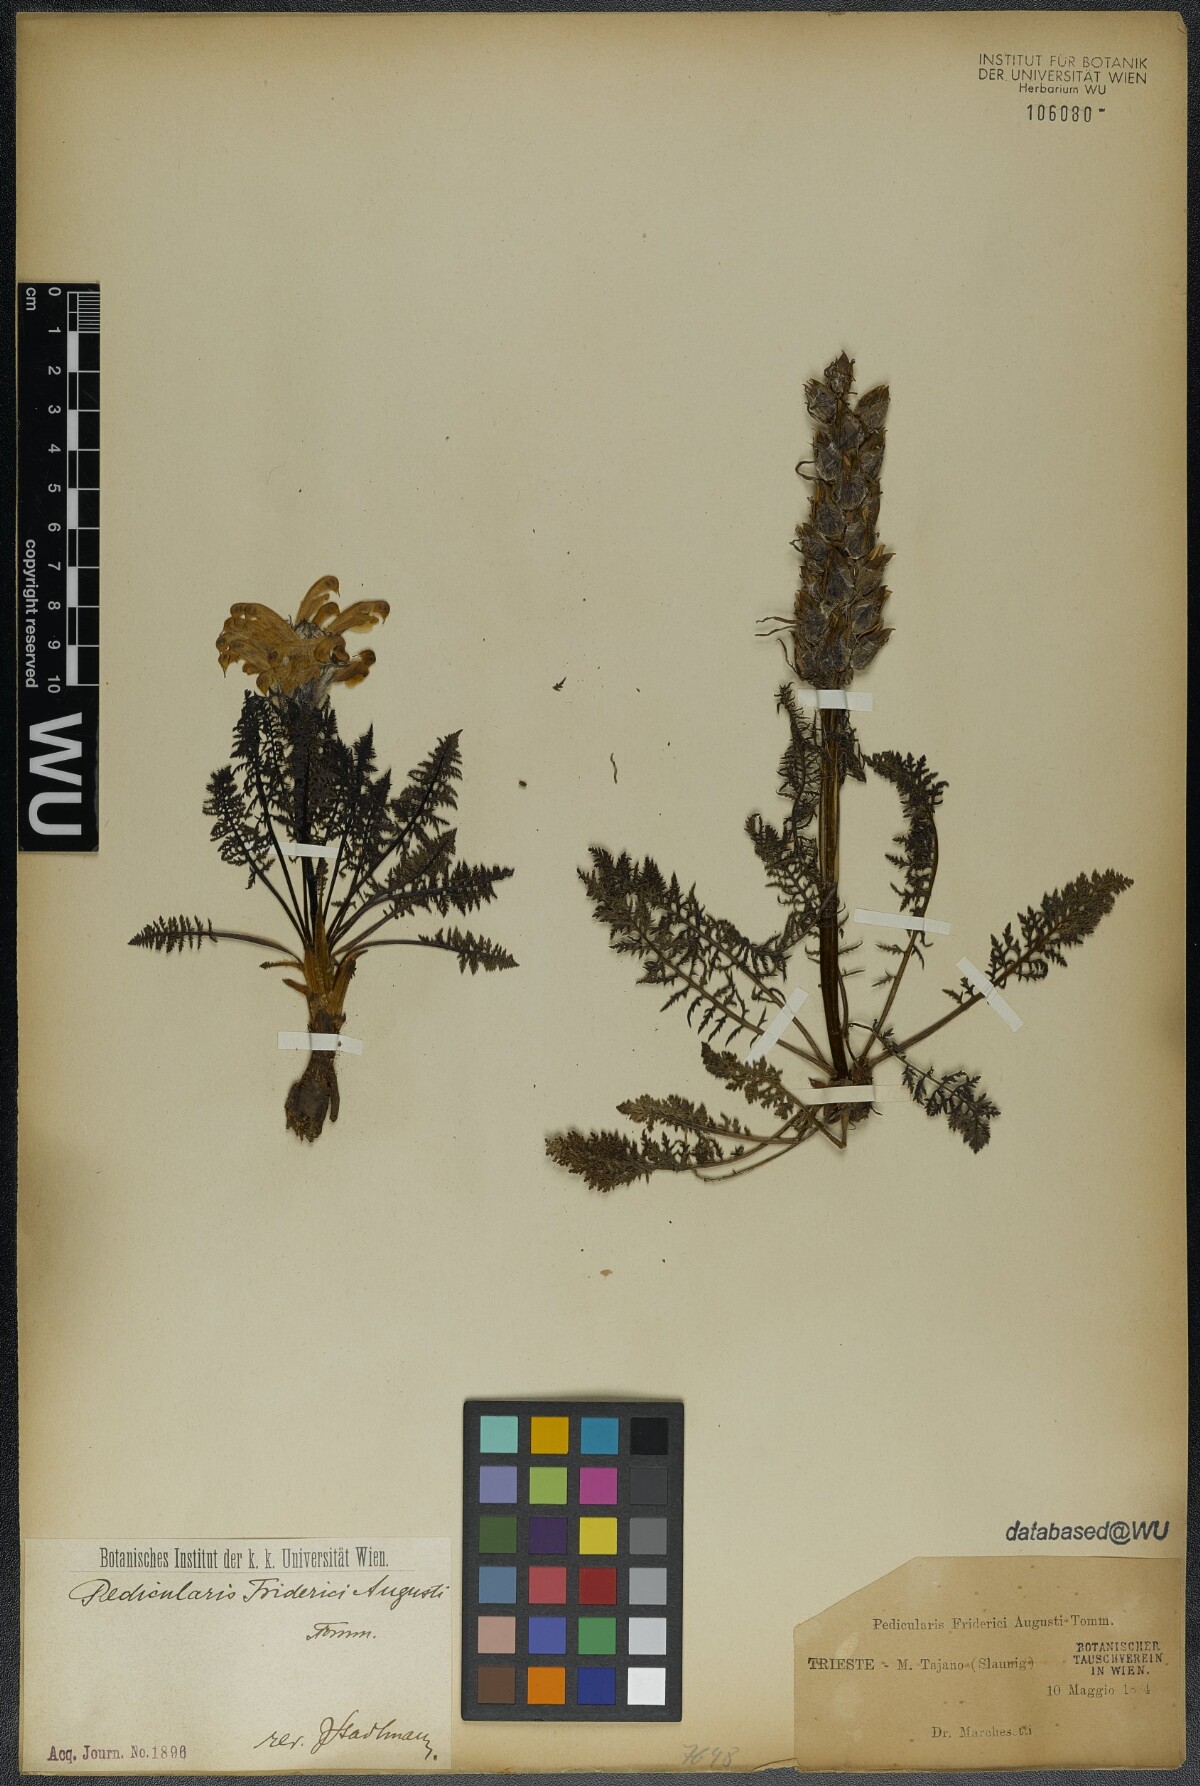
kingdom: Plantae
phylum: Tracheophyta
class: Magnoliopsida
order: Lamiales
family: Orobanchaceae
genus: Pedicularis
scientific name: Pedicularis friderici-augusti
